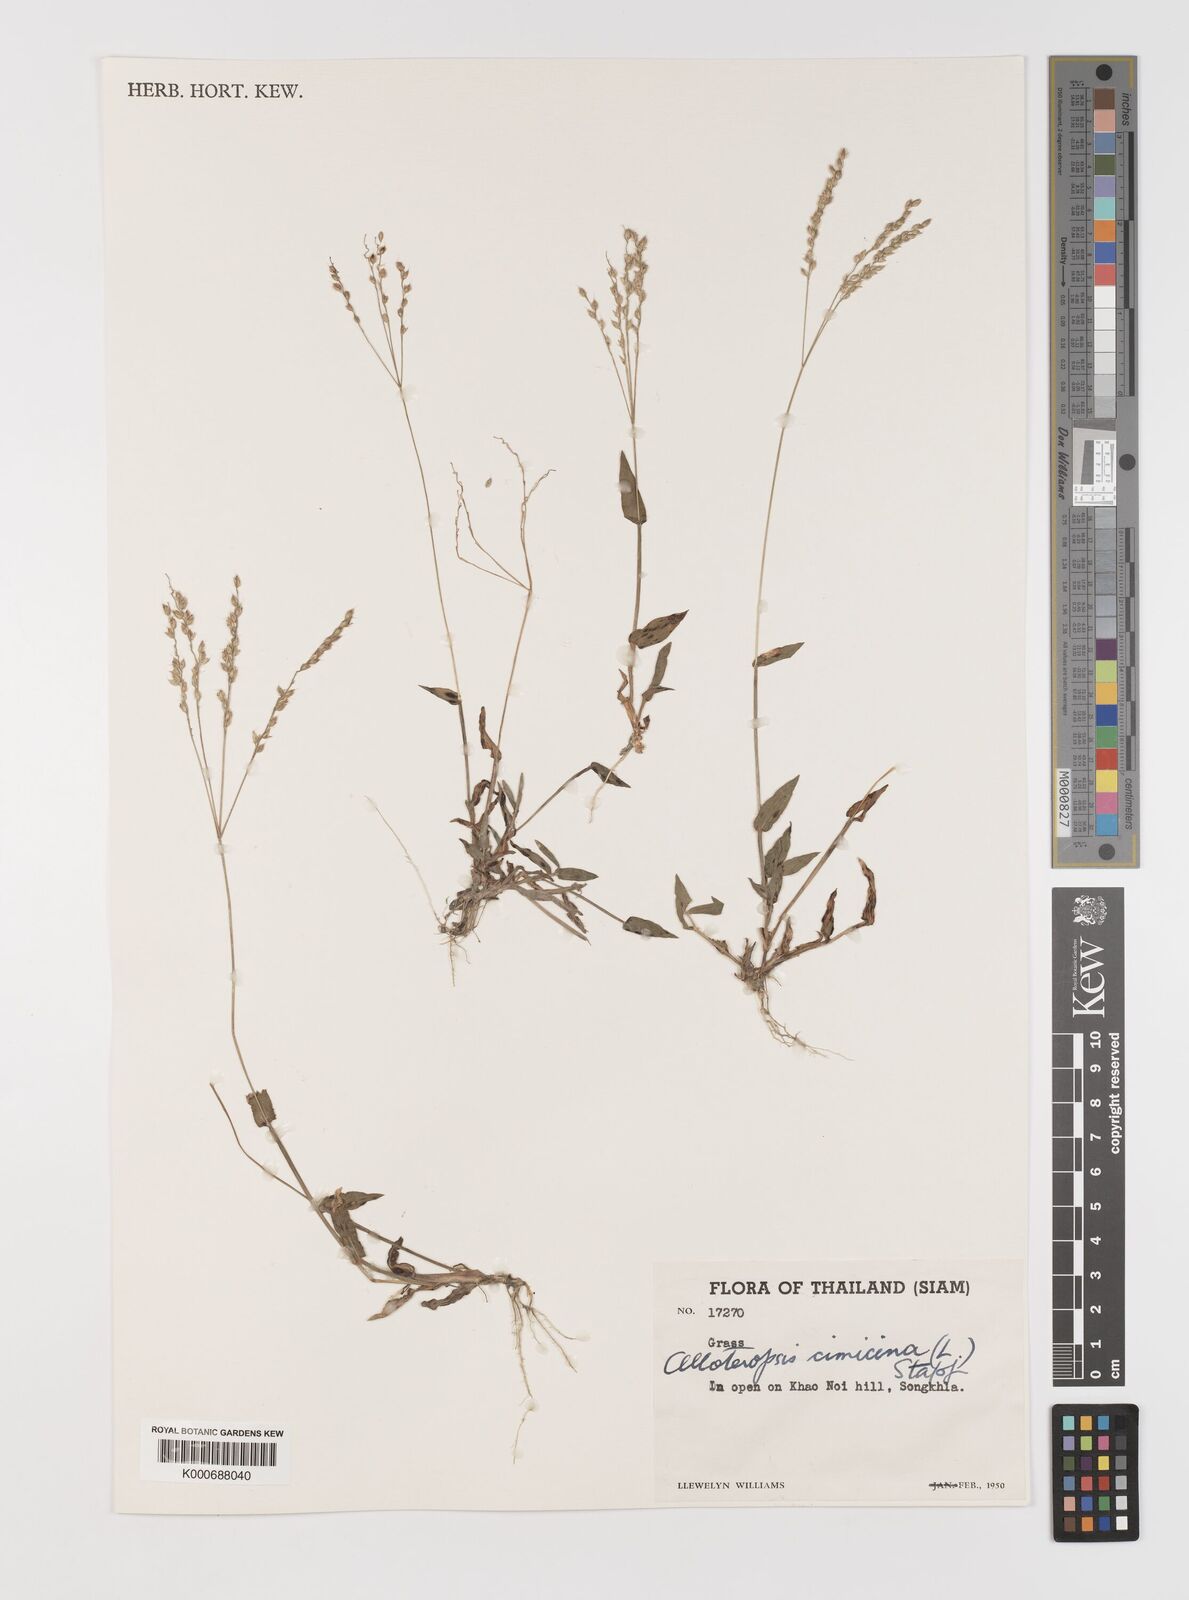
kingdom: Plantae
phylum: Tracheophyta
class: Liliopsida
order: Poales
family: Poaceae
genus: Alloteropsis
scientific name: Alloteropsis cimicina
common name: Summergrass
